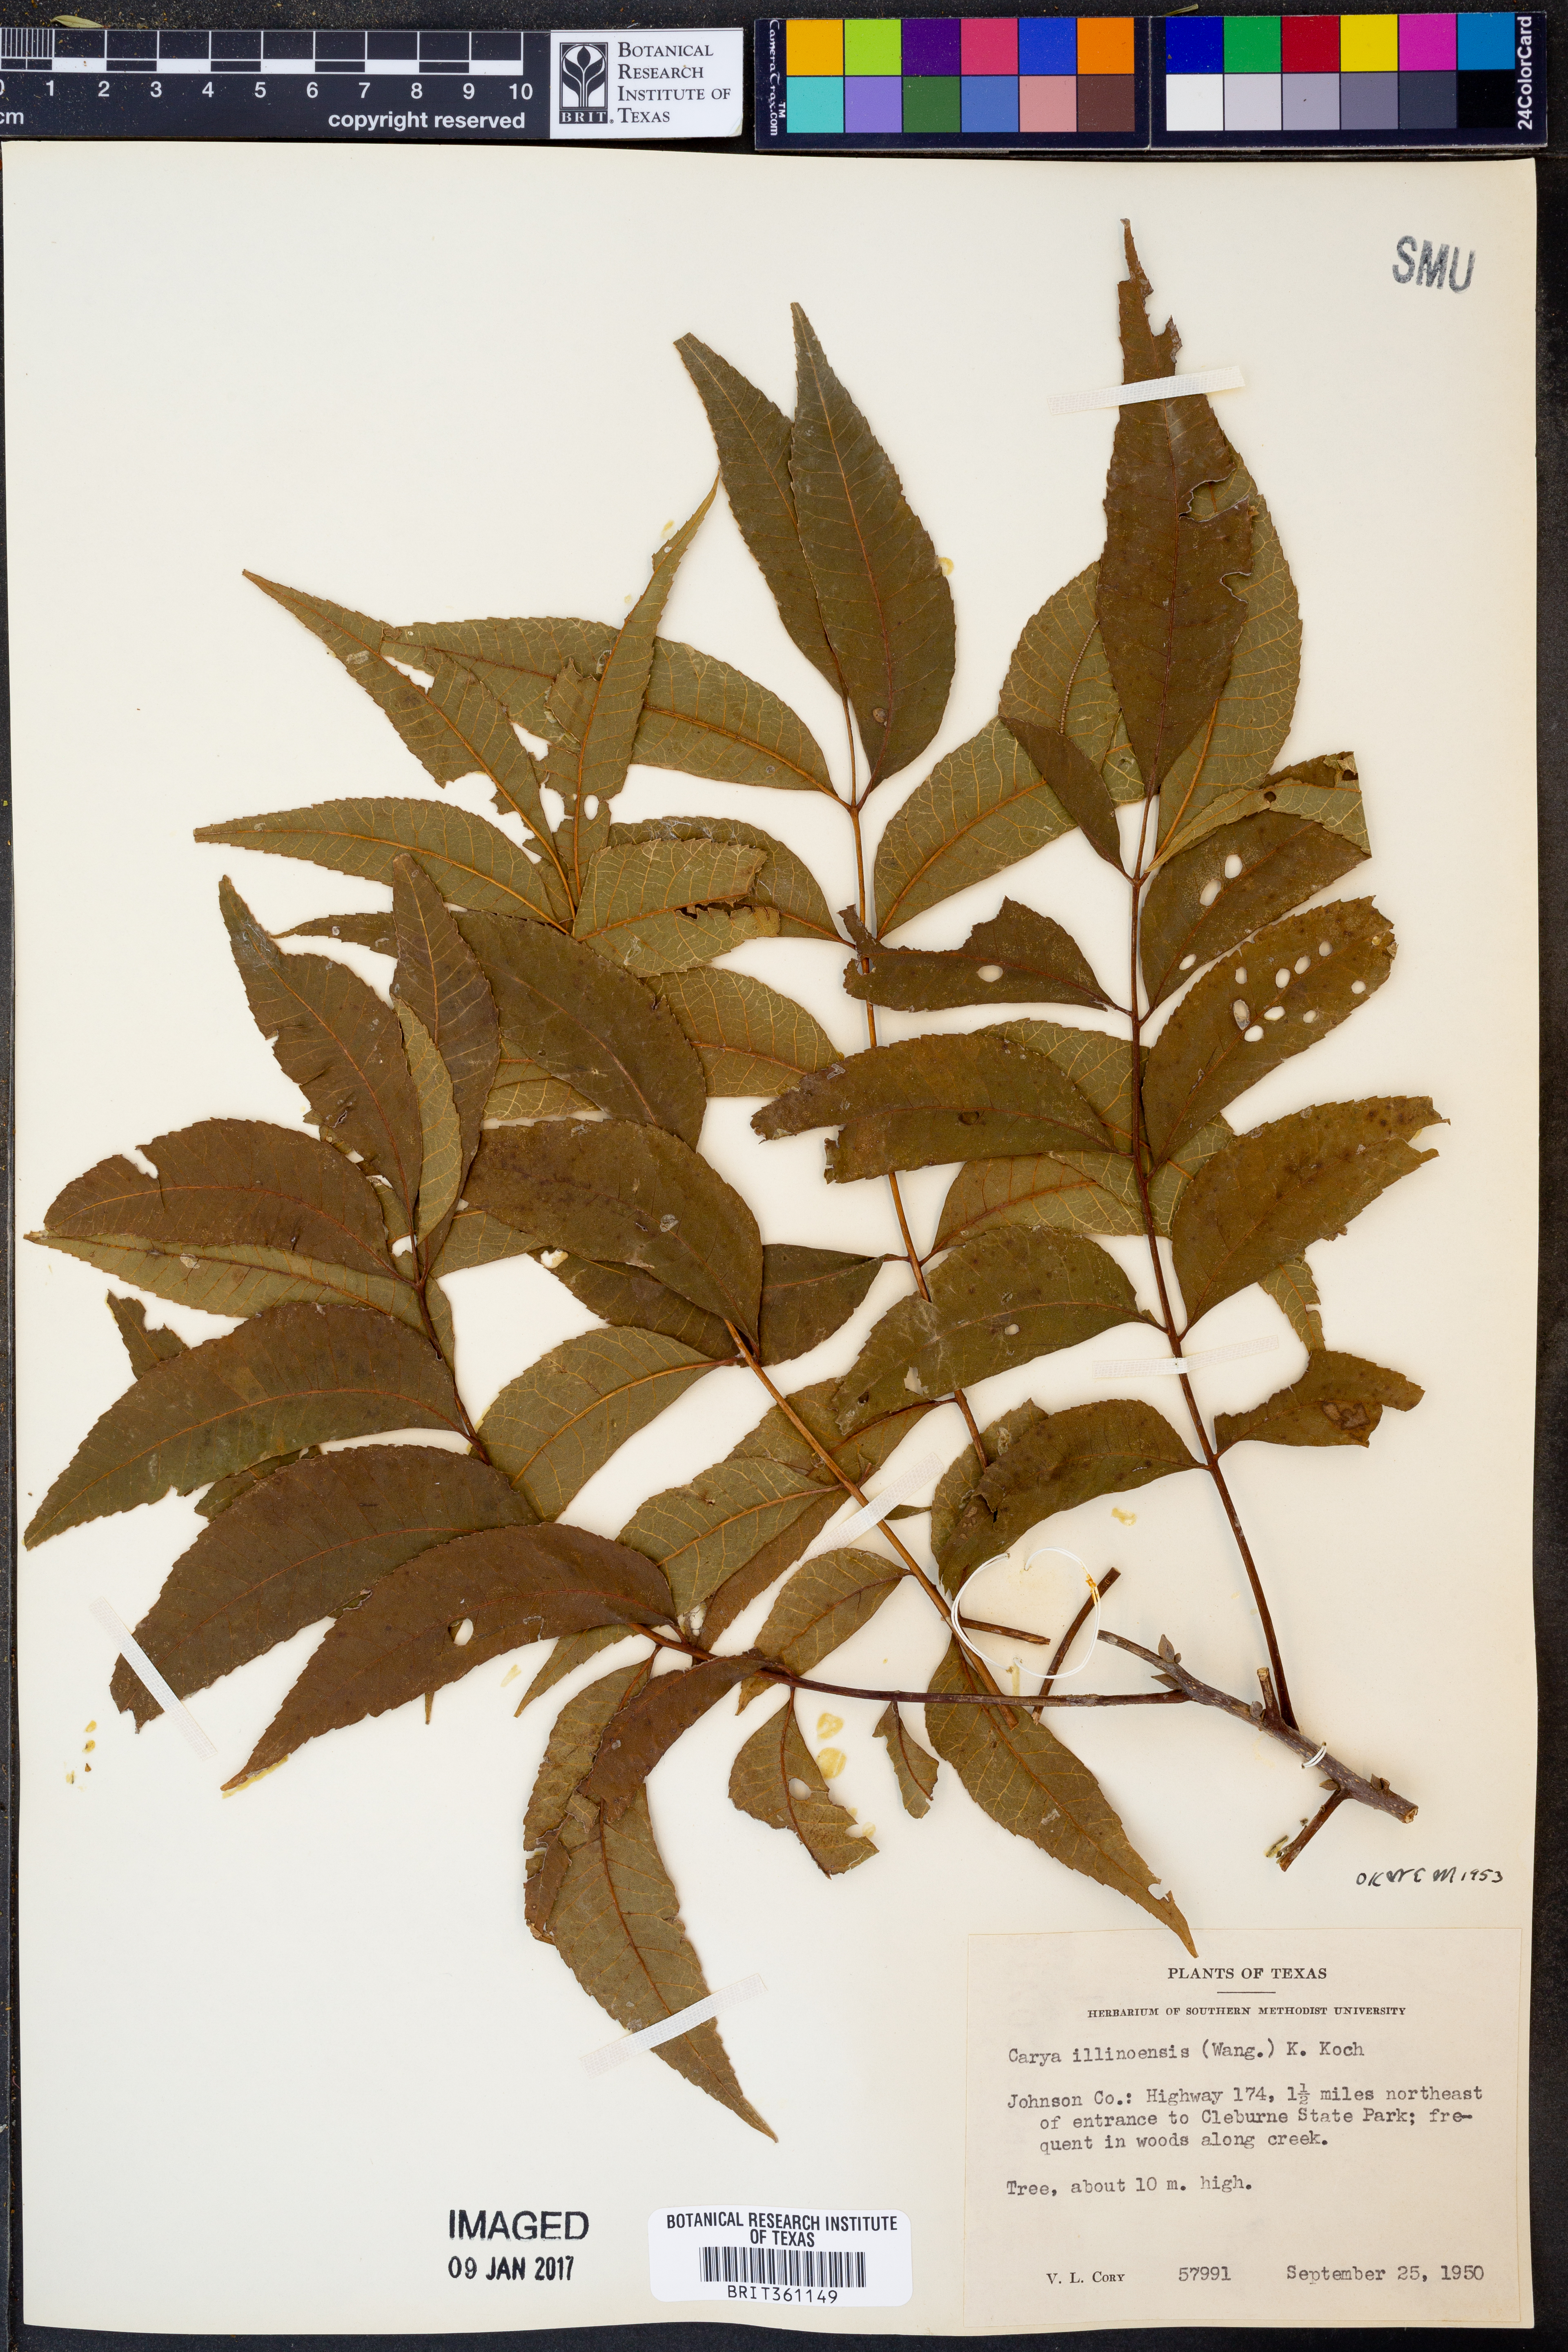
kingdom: Plantae
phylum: Tracheophyta
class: Magnoliopsida
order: Fagales
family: Juglandaceae
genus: Carya
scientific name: Carya illinoinensis
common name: Pecan
